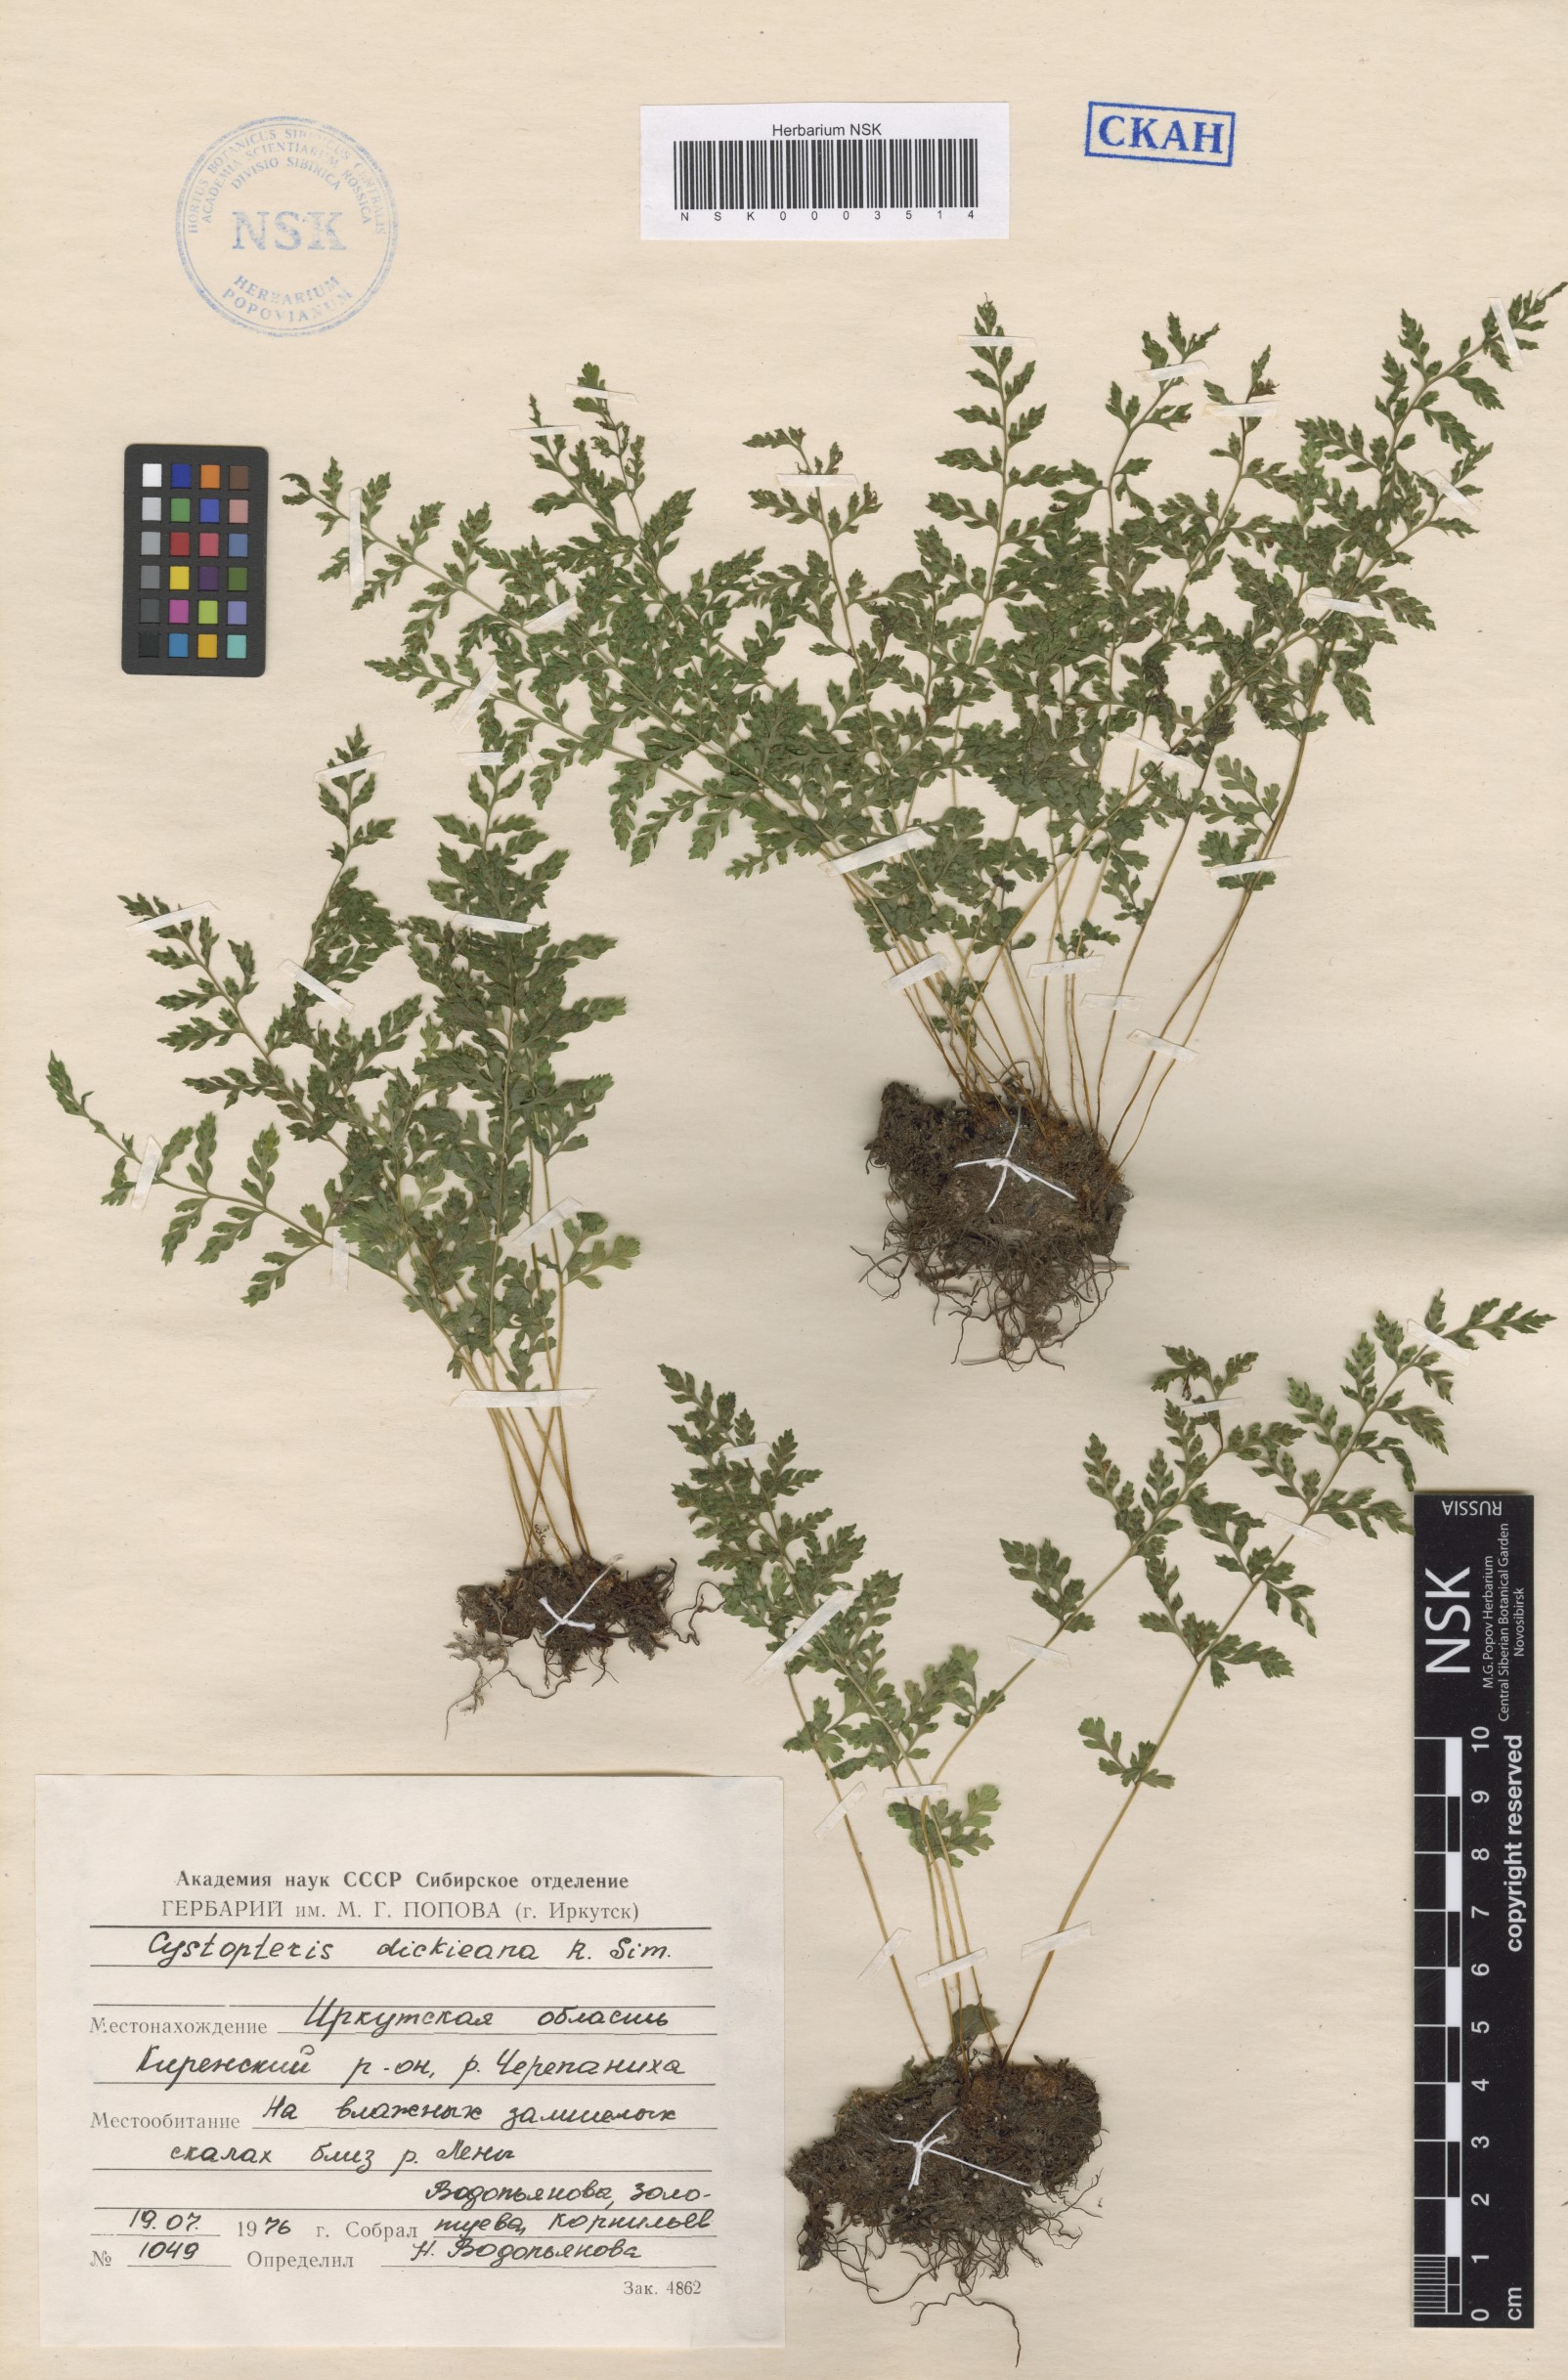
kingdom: Plantae
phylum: Tracheophyta
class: Polypodiopsida
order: Polypodiales
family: Cystopteridaceae
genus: Cystopteris
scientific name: Cystopteris dickieana
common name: Dickie's bladder-fern
